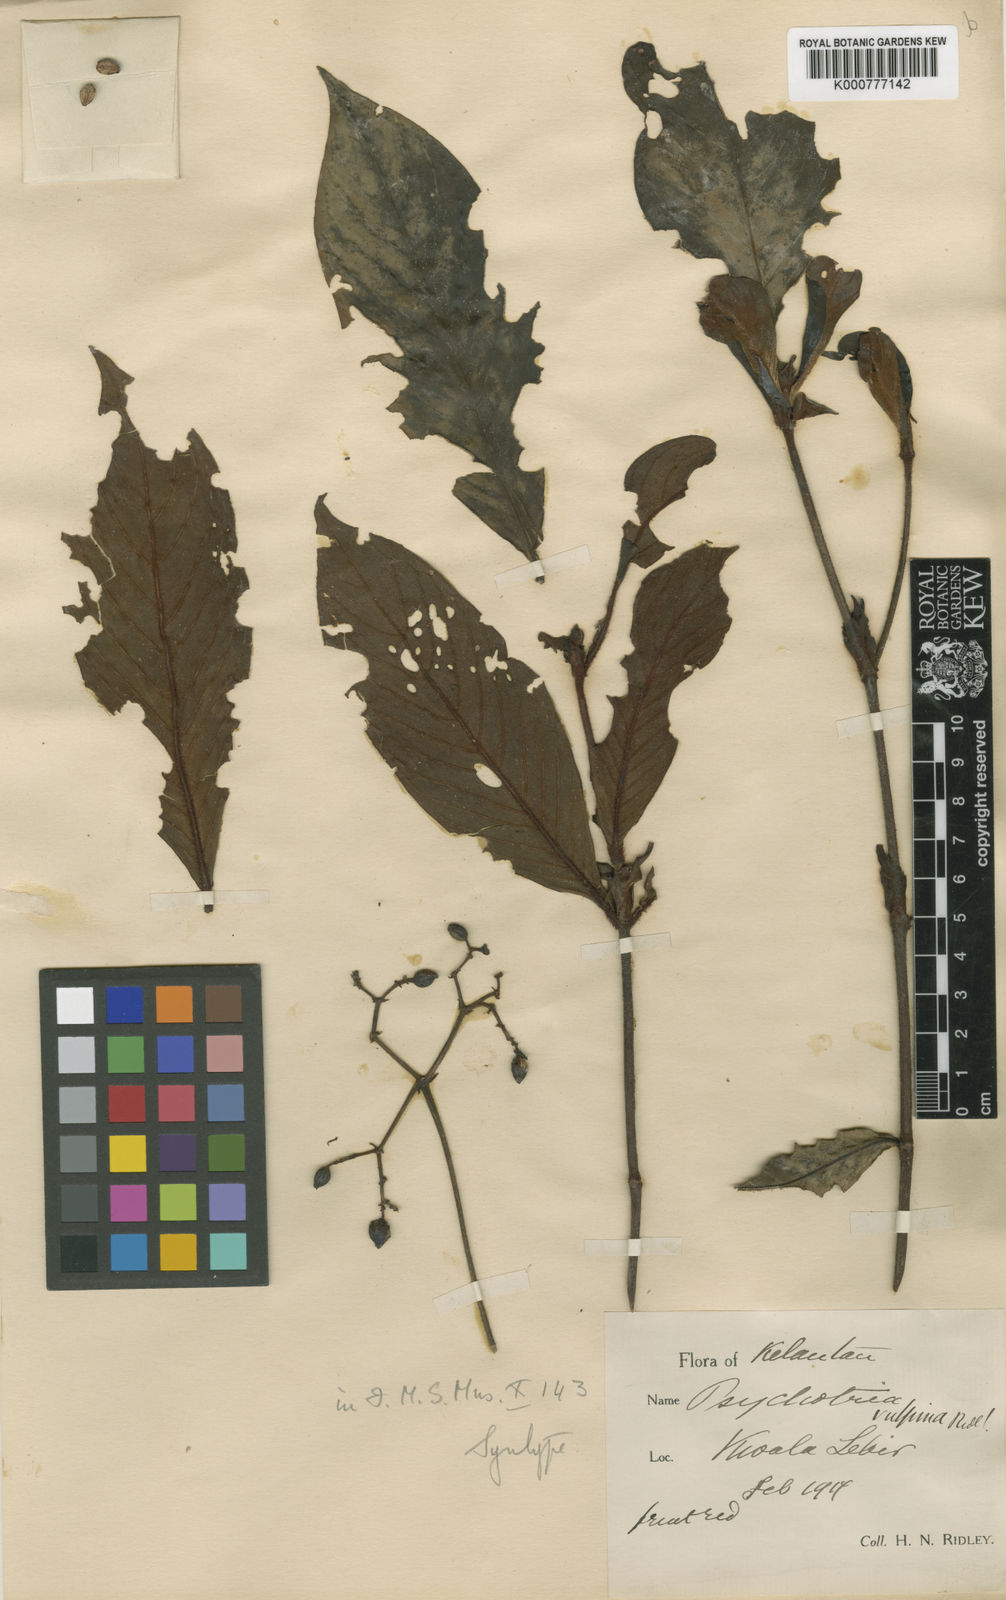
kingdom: Plantae
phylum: Tracheophyta
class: Magnoliopsida
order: Gentianales
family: Rubiaceae
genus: Psychotria
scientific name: Psychotria vulpina
